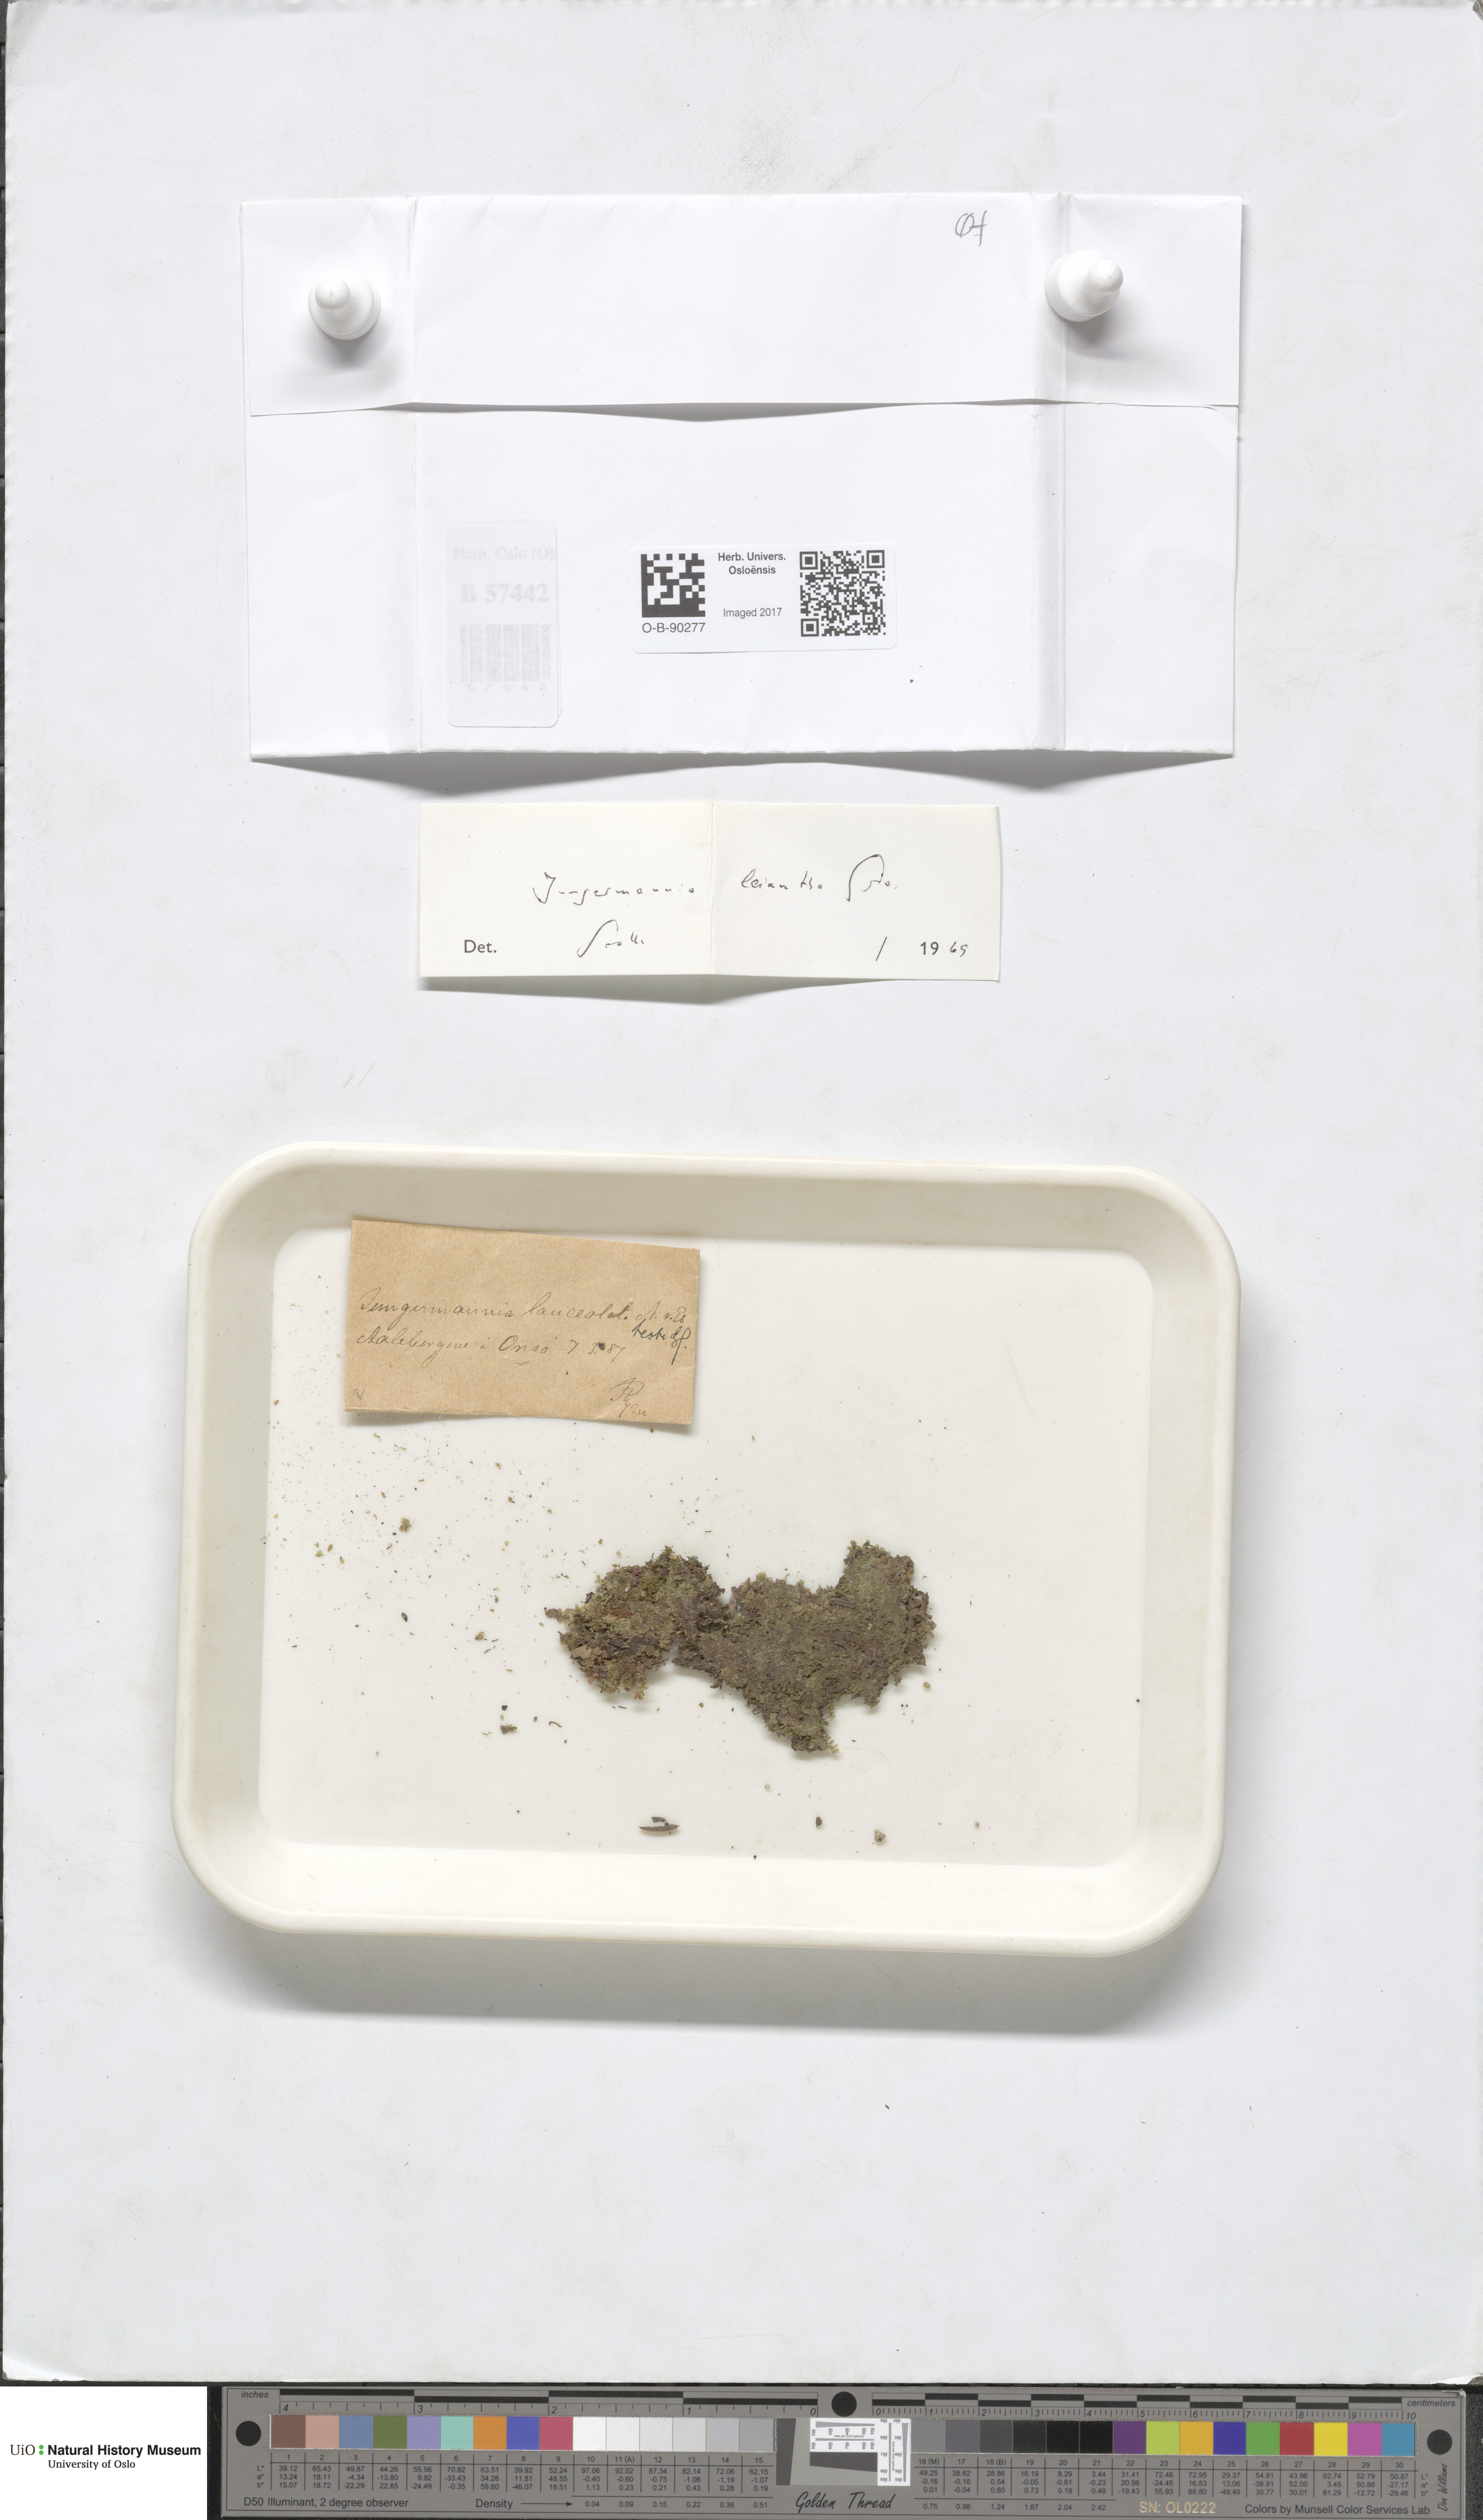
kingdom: Plantae
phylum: Marchantiophyta
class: Jungermanniopsida
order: Jungermanniales
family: Jungermanniaceae
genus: Liochlaena
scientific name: Liochlaena lanceolata
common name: Long-leaved flapwort
